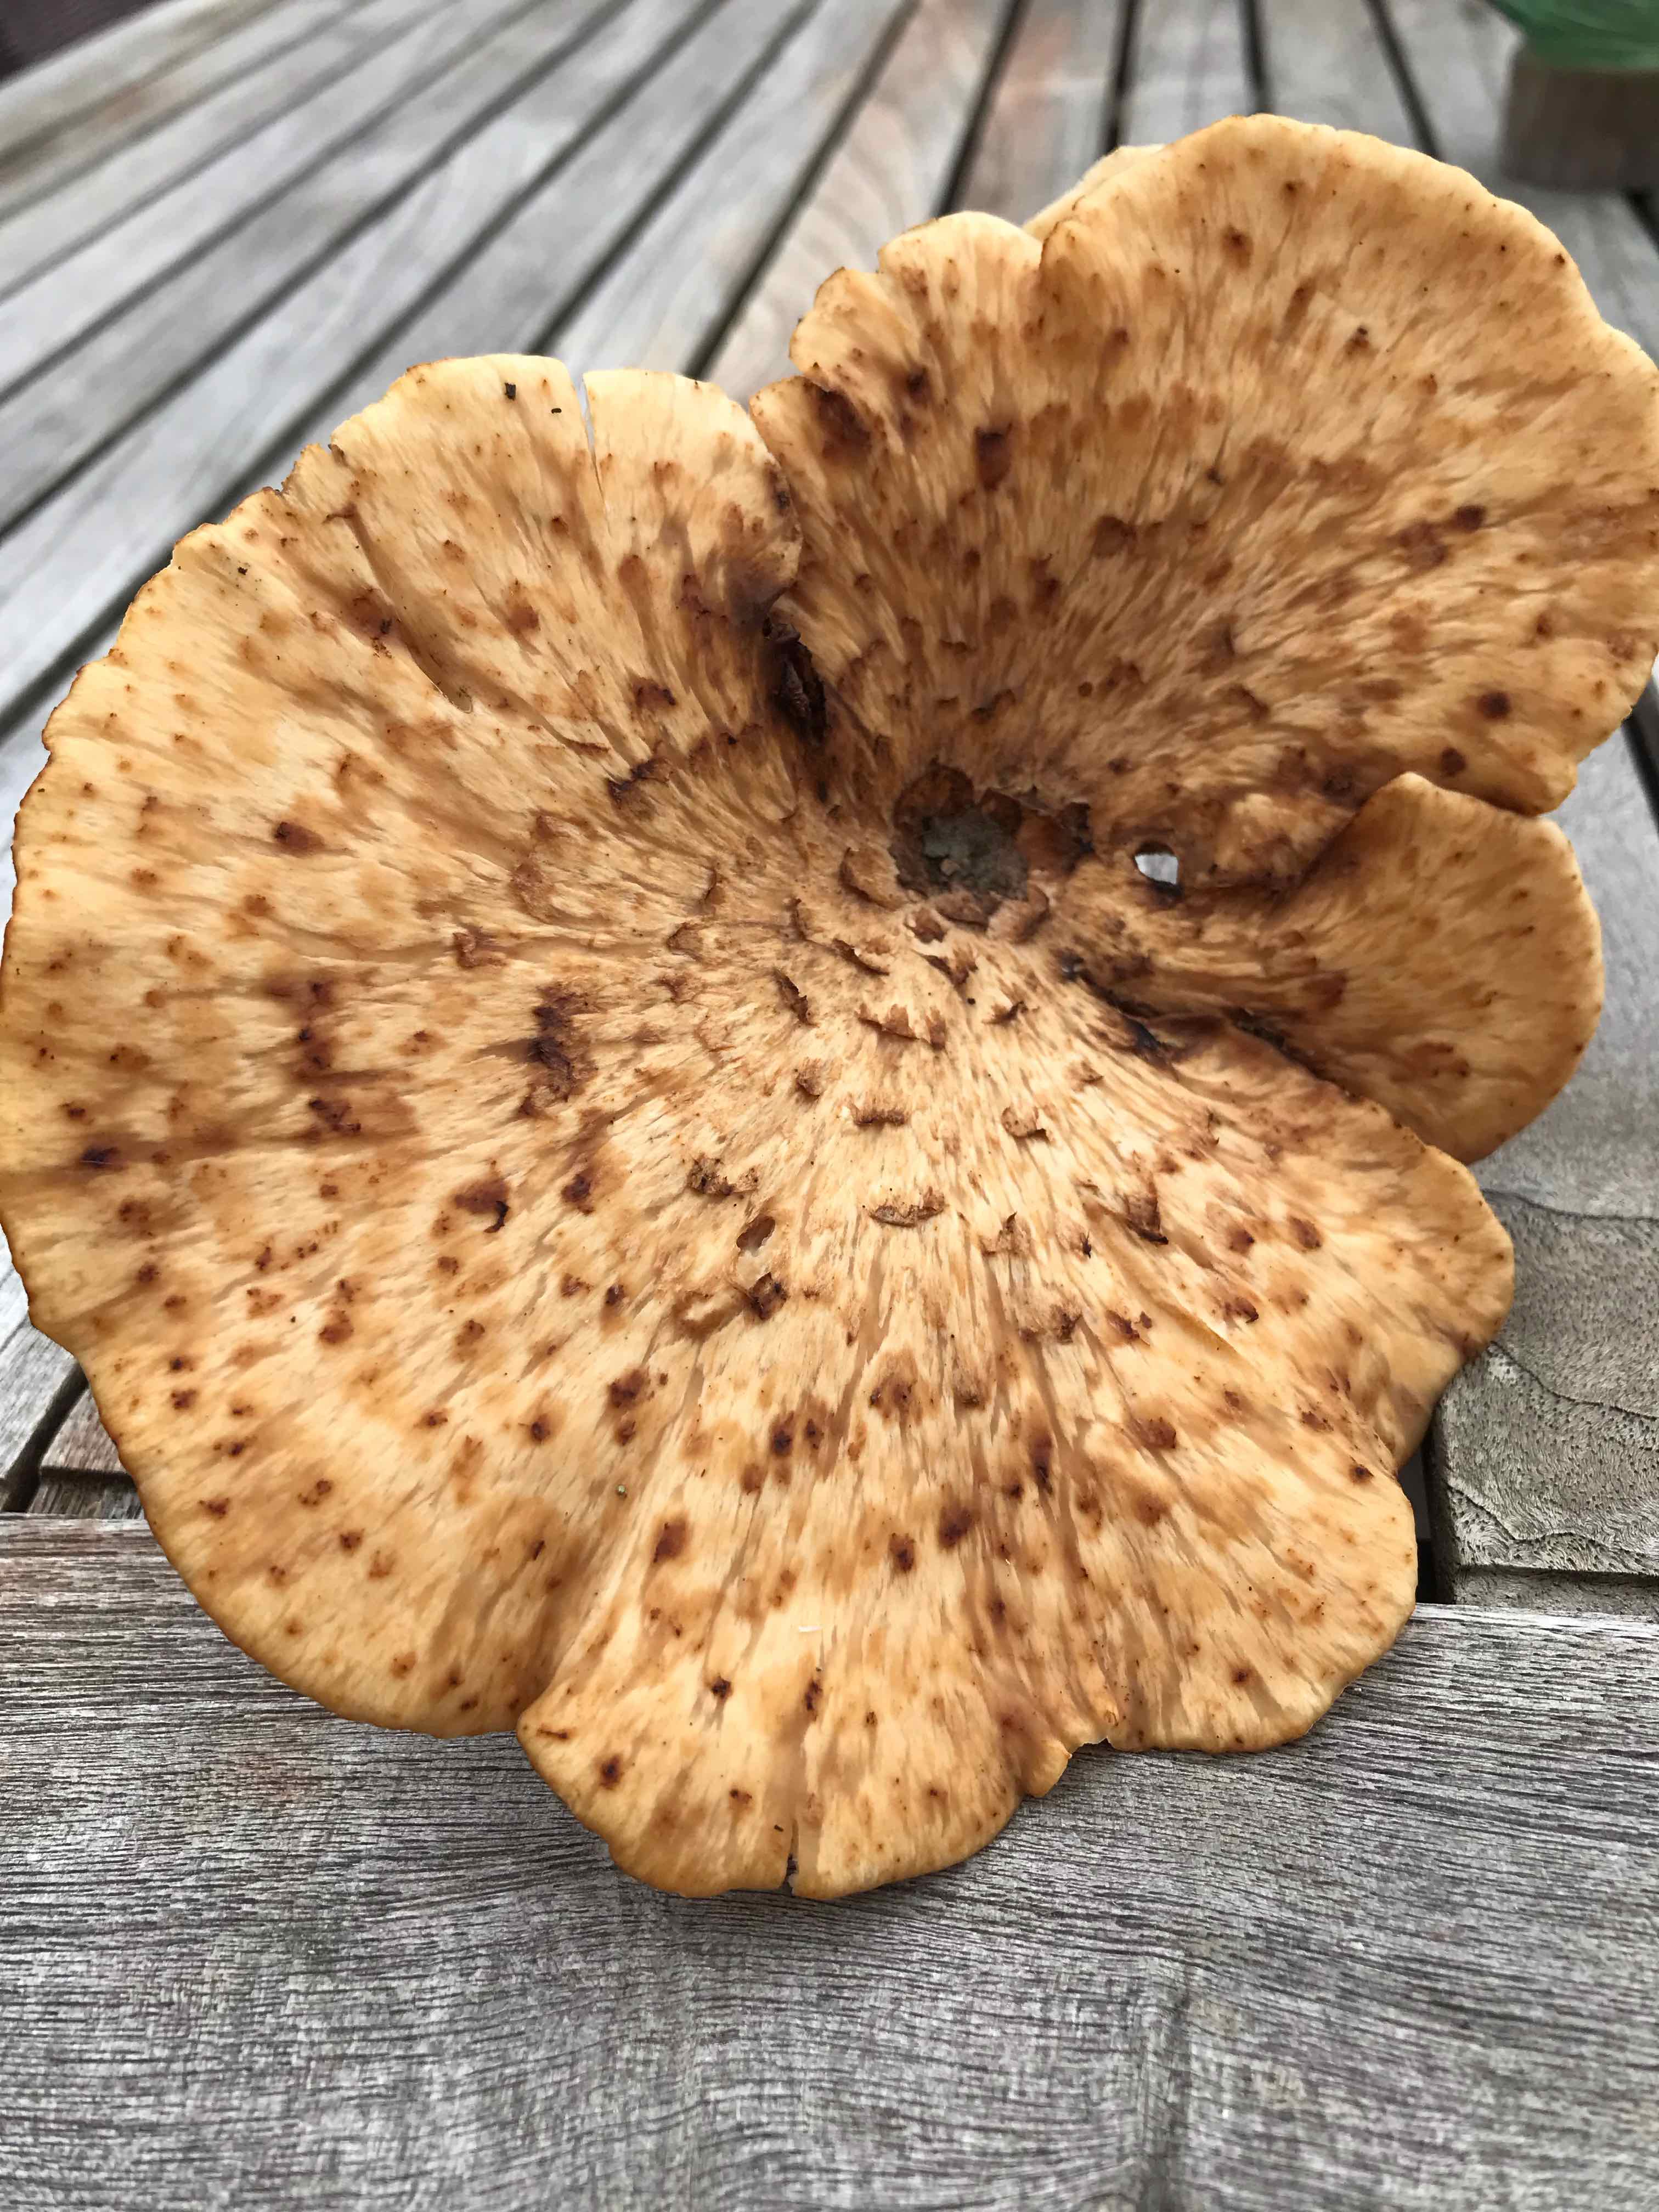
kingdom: Fungi
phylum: Basidiomycota
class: Agaricomycetes
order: Polyporales
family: Polyporaceae
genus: Cerioporus
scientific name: Cerioporus squamosus
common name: skællet stilkporesvamp
